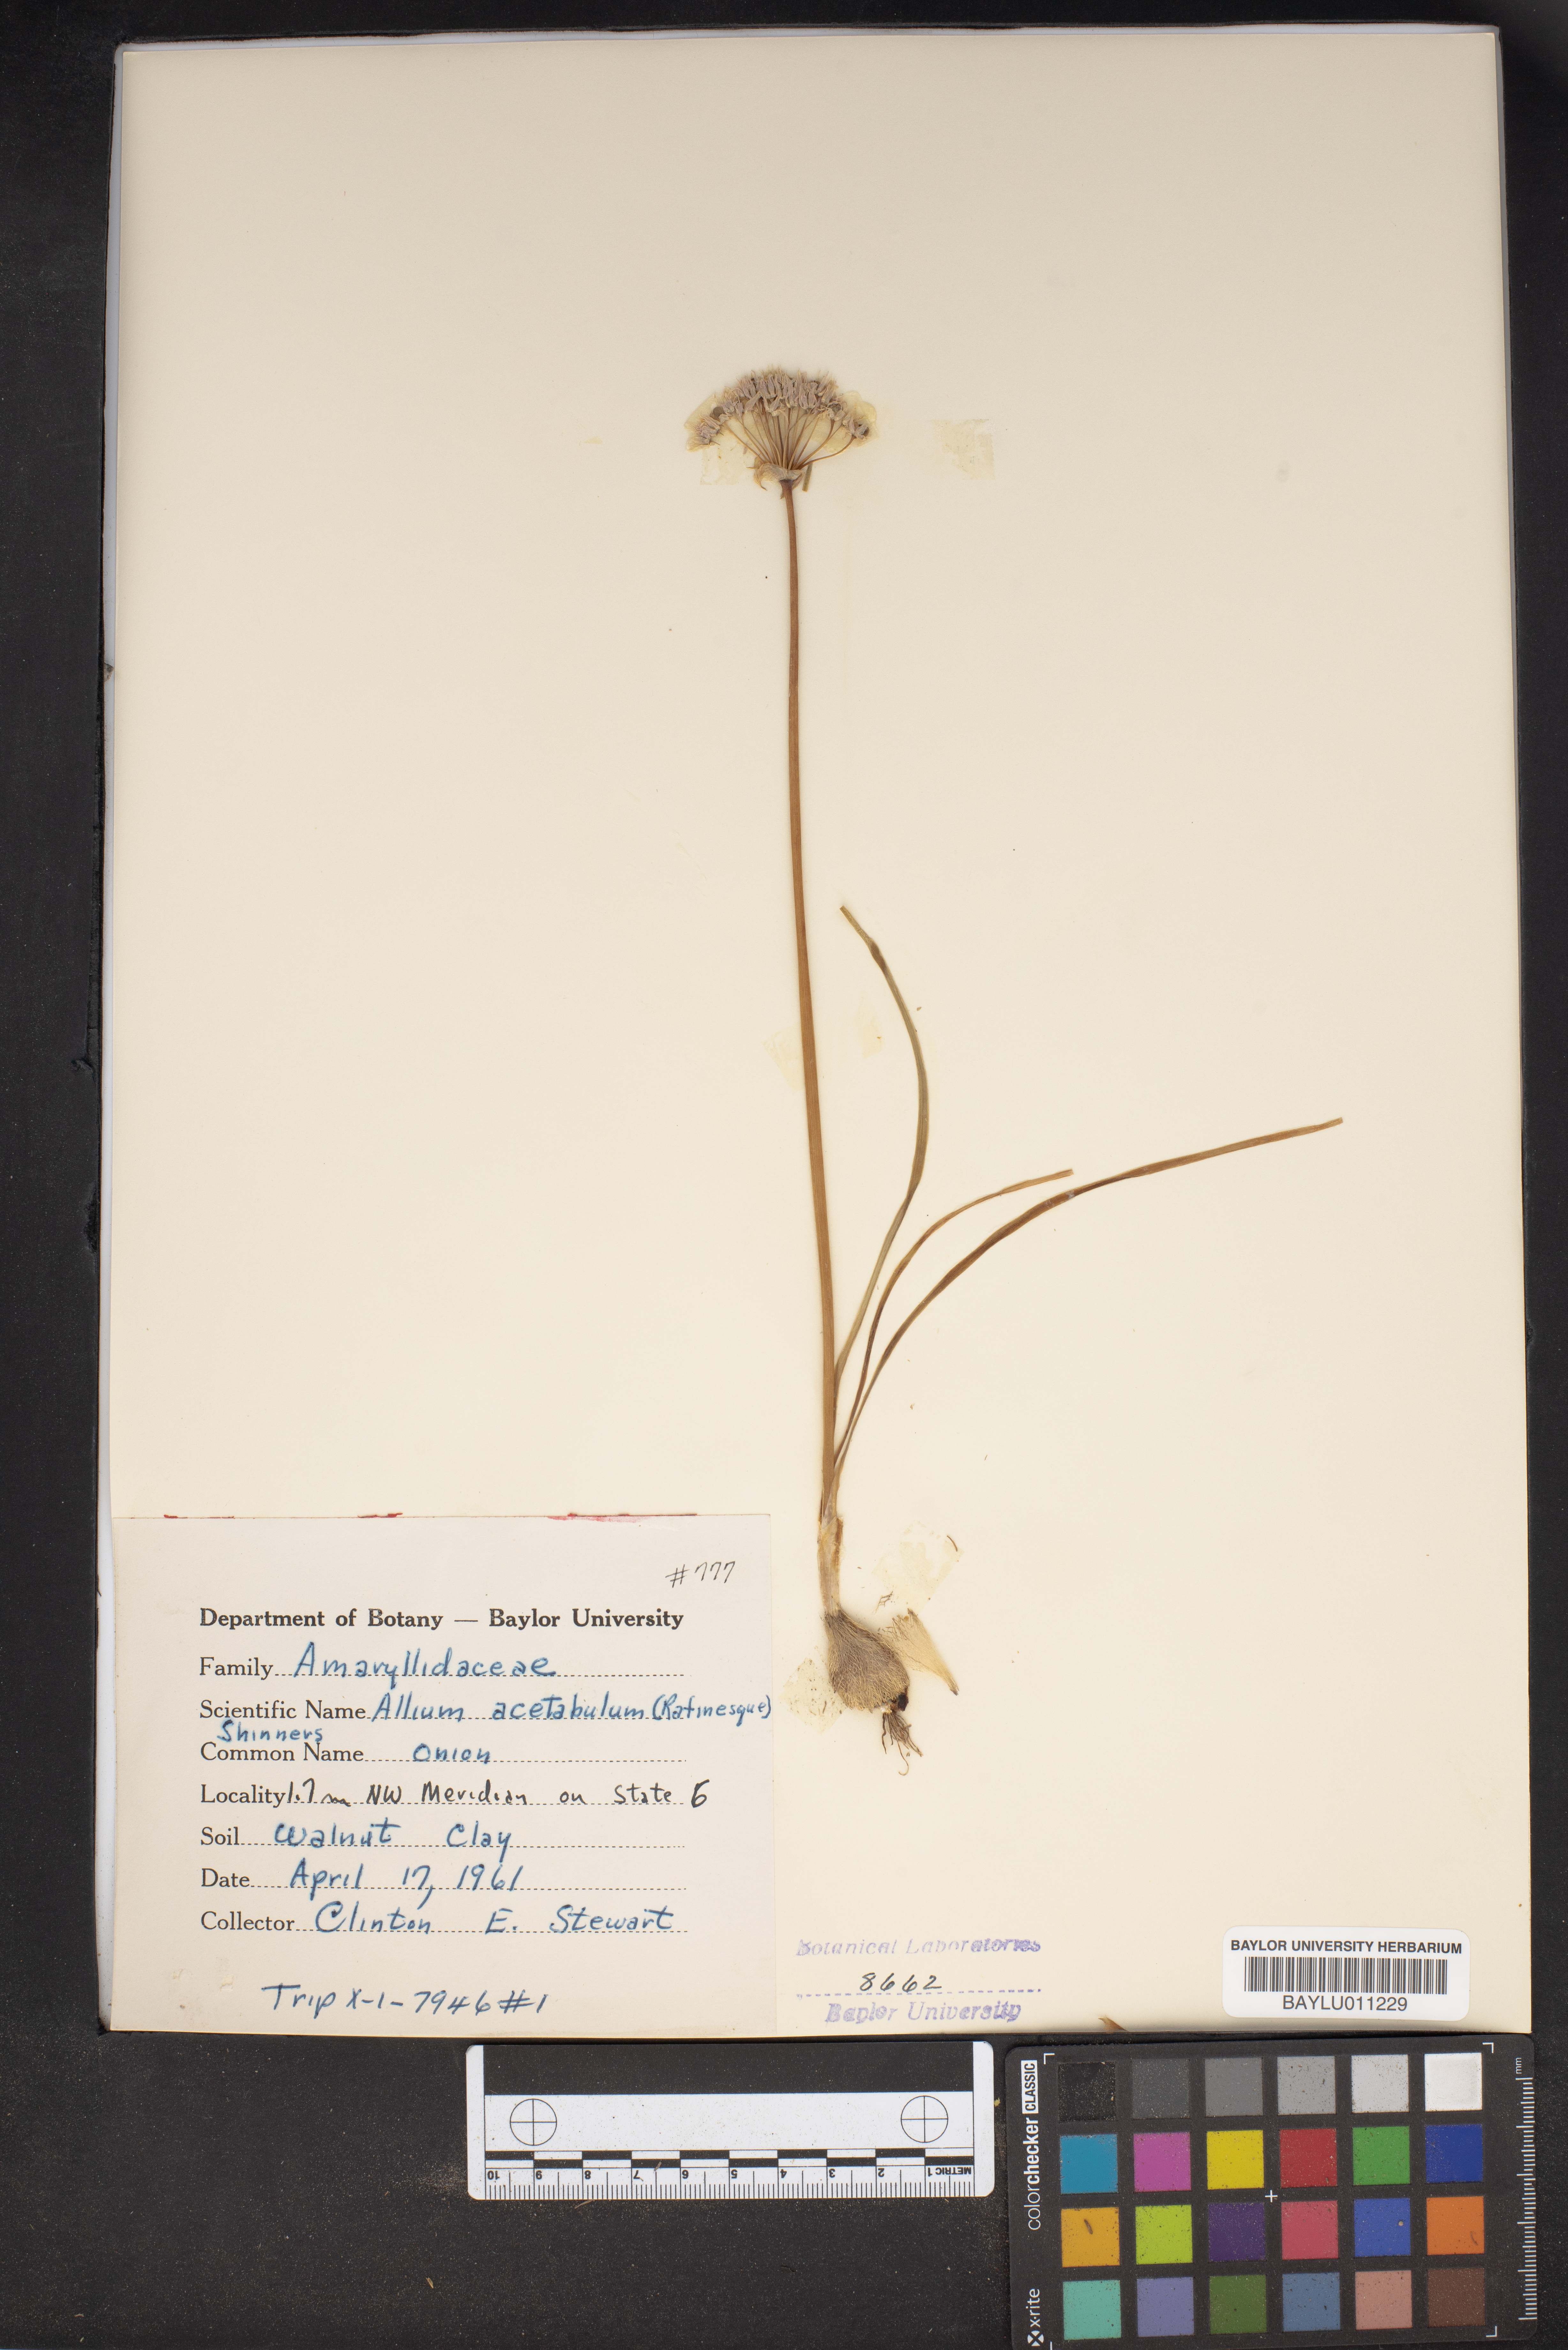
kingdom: Plantae
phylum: Tracheophyta
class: Liliopsida
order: Asparagales
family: Amaryllidaceae
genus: Allium
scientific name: Allium canadense
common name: Meadow garlic
